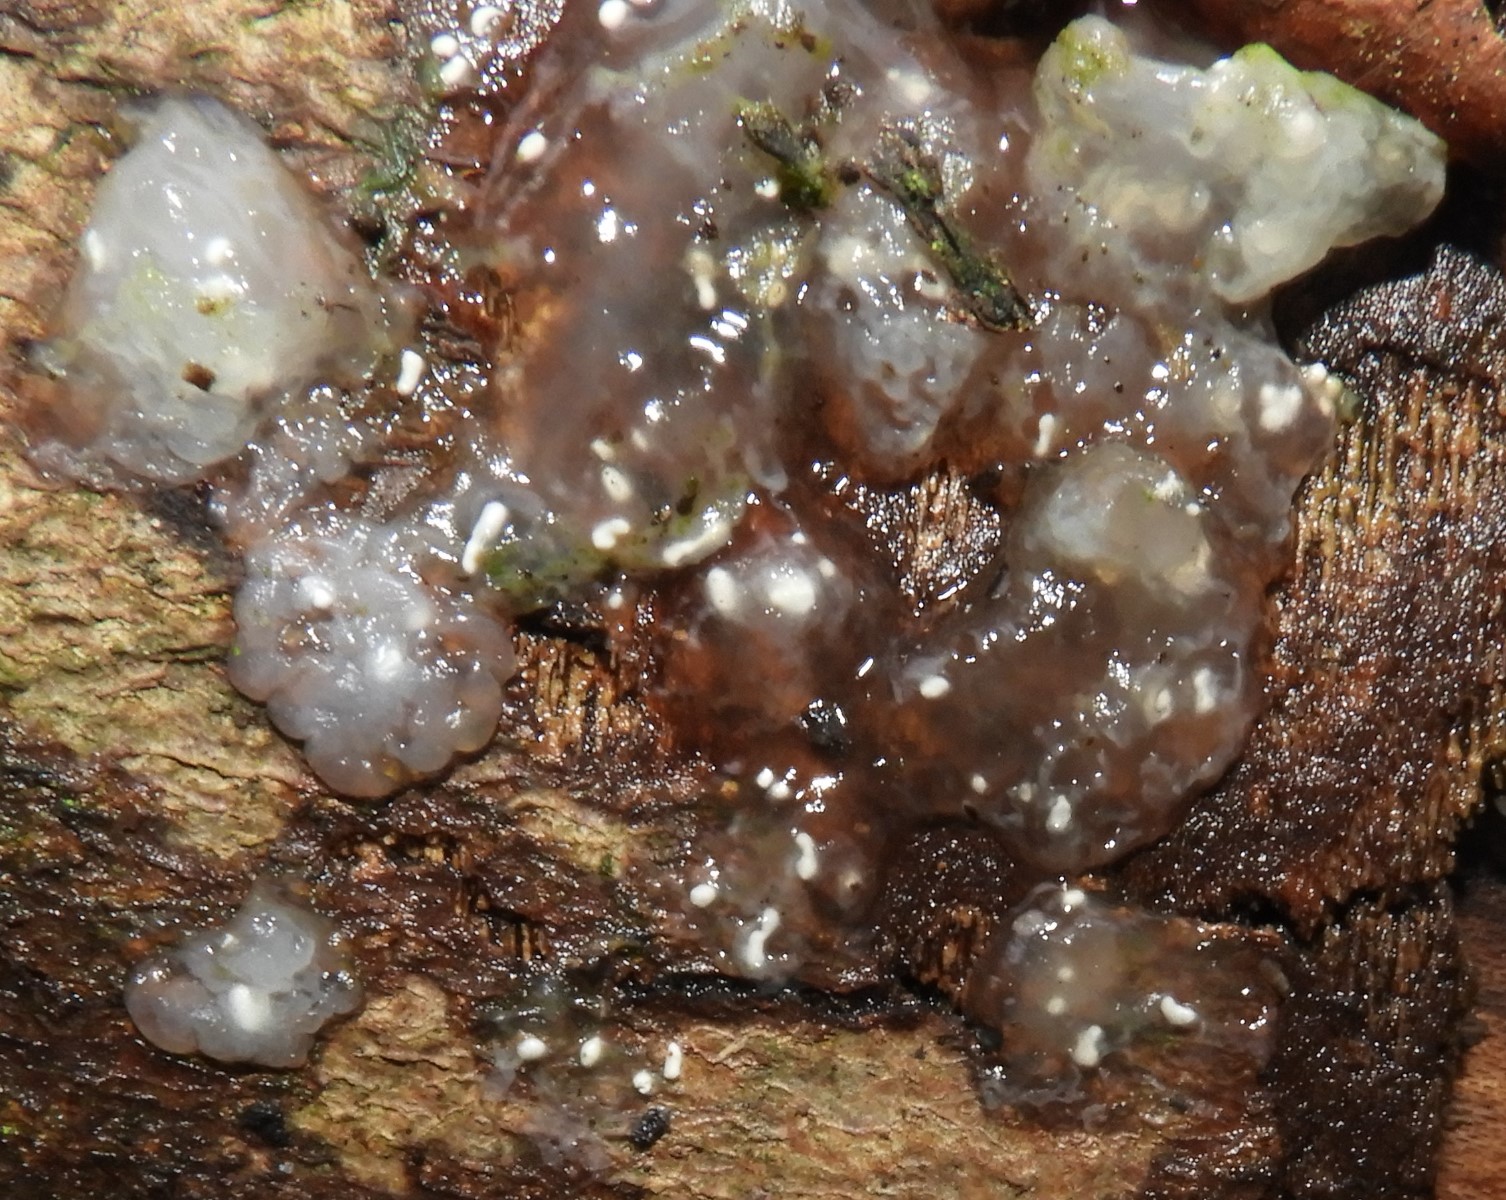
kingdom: Fungi
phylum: Basidiomycota
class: Agaricomycetes
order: Auriculariales
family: Hyaloriaceae
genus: Myxarium
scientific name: Myxarium nucleatum
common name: klar bævretop
